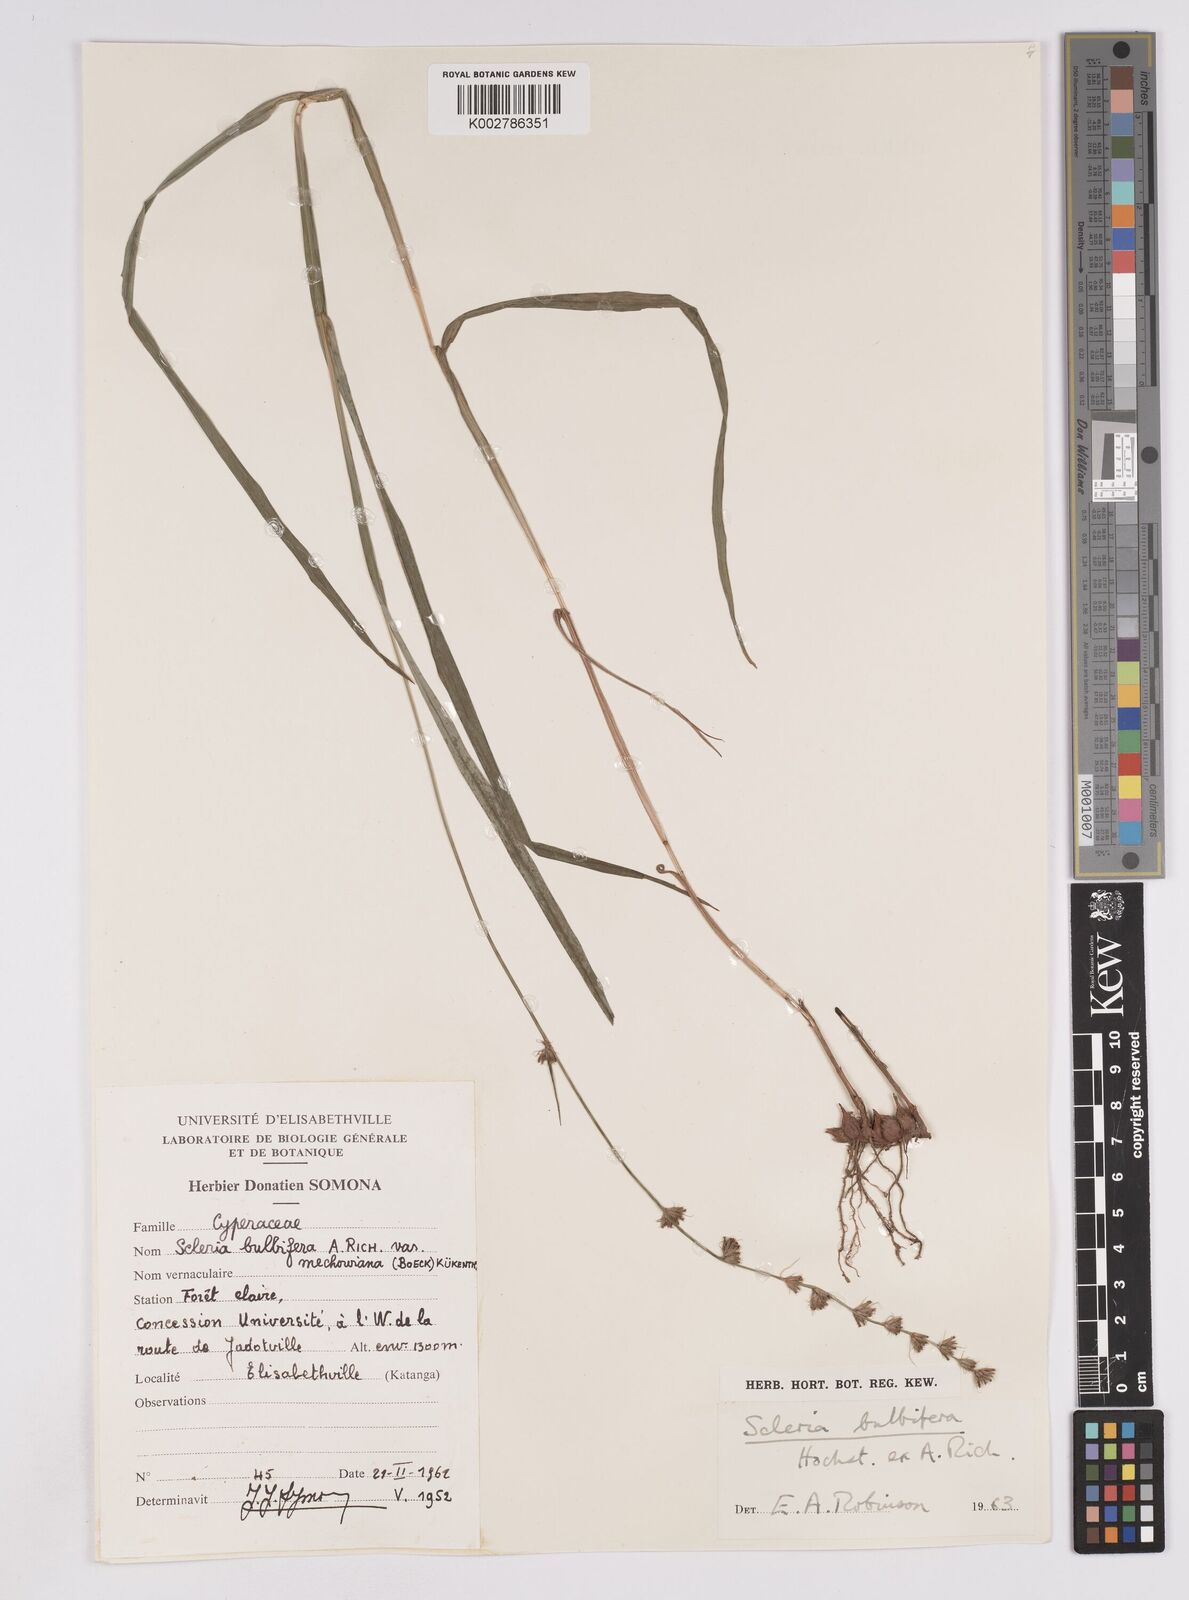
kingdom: Plantae
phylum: Tracheophyta
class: Liliopsida
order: Poales
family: Cyperaceae
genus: Scleria
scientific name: Scleria bulbifera
